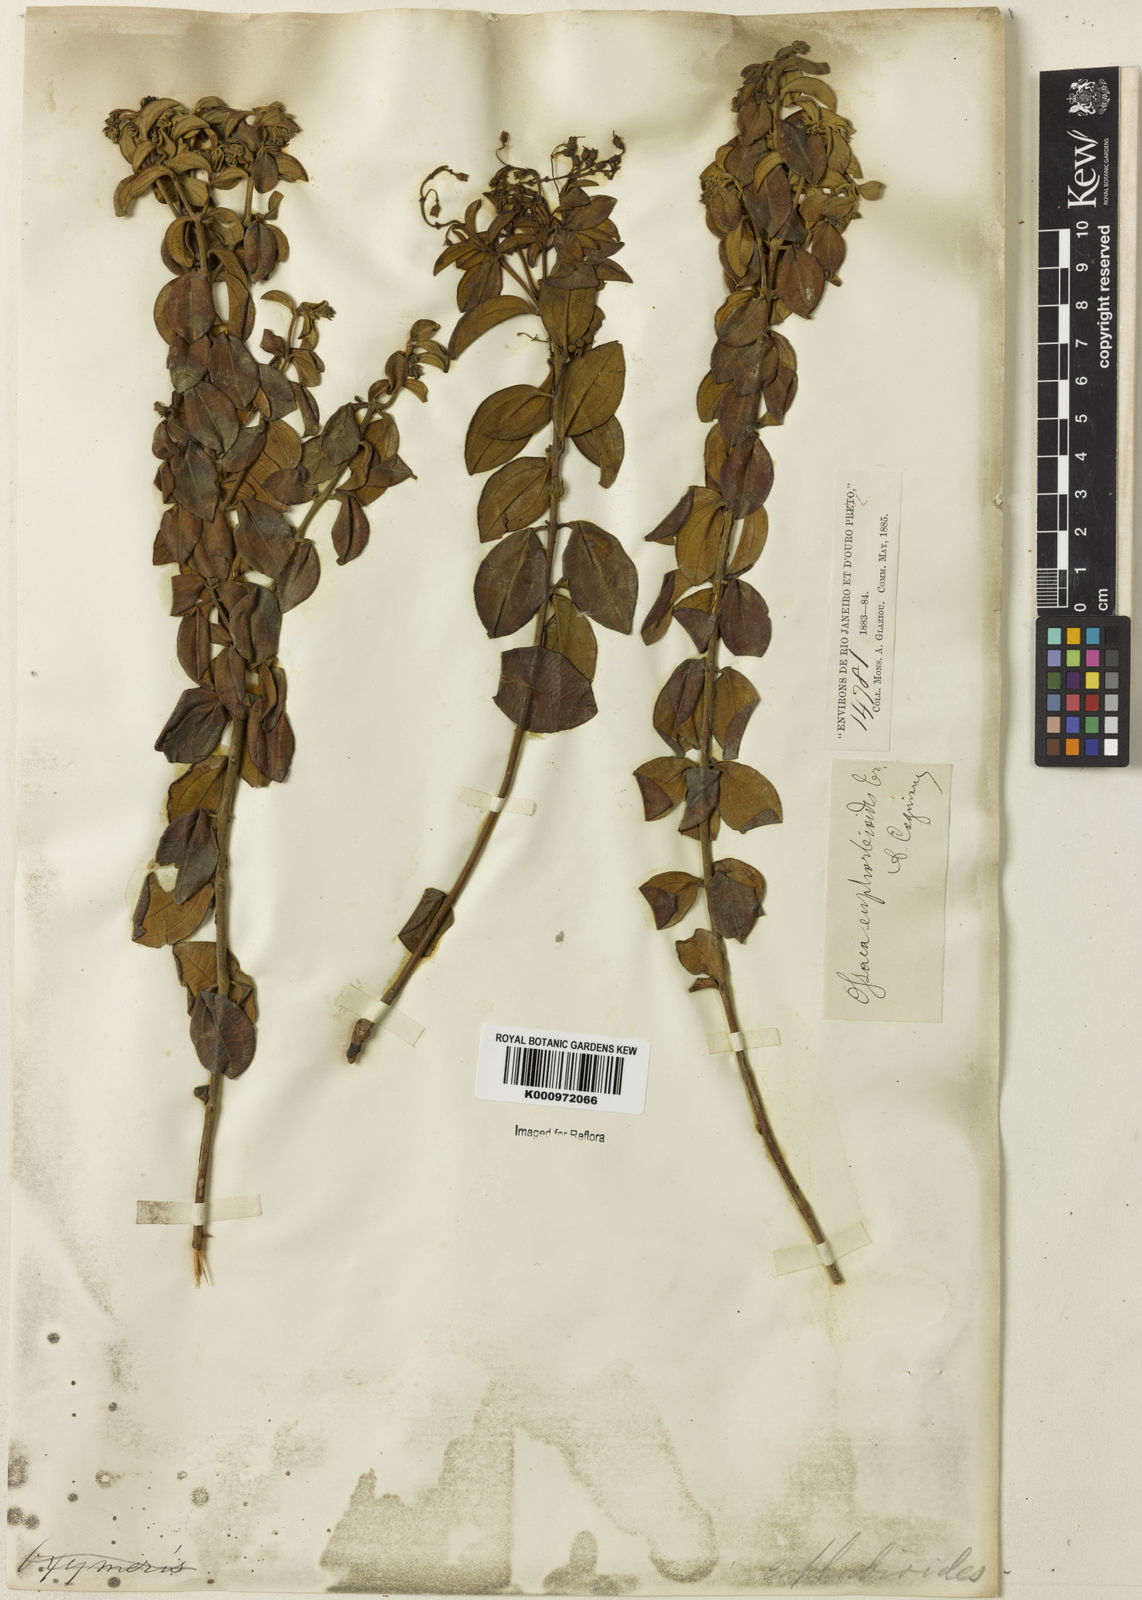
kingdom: Plantae
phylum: Tracheophyta
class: Magnoliopsida
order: Myrtales
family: Melastomataceae
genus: Miconia
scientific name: Miconia euphorbioides
